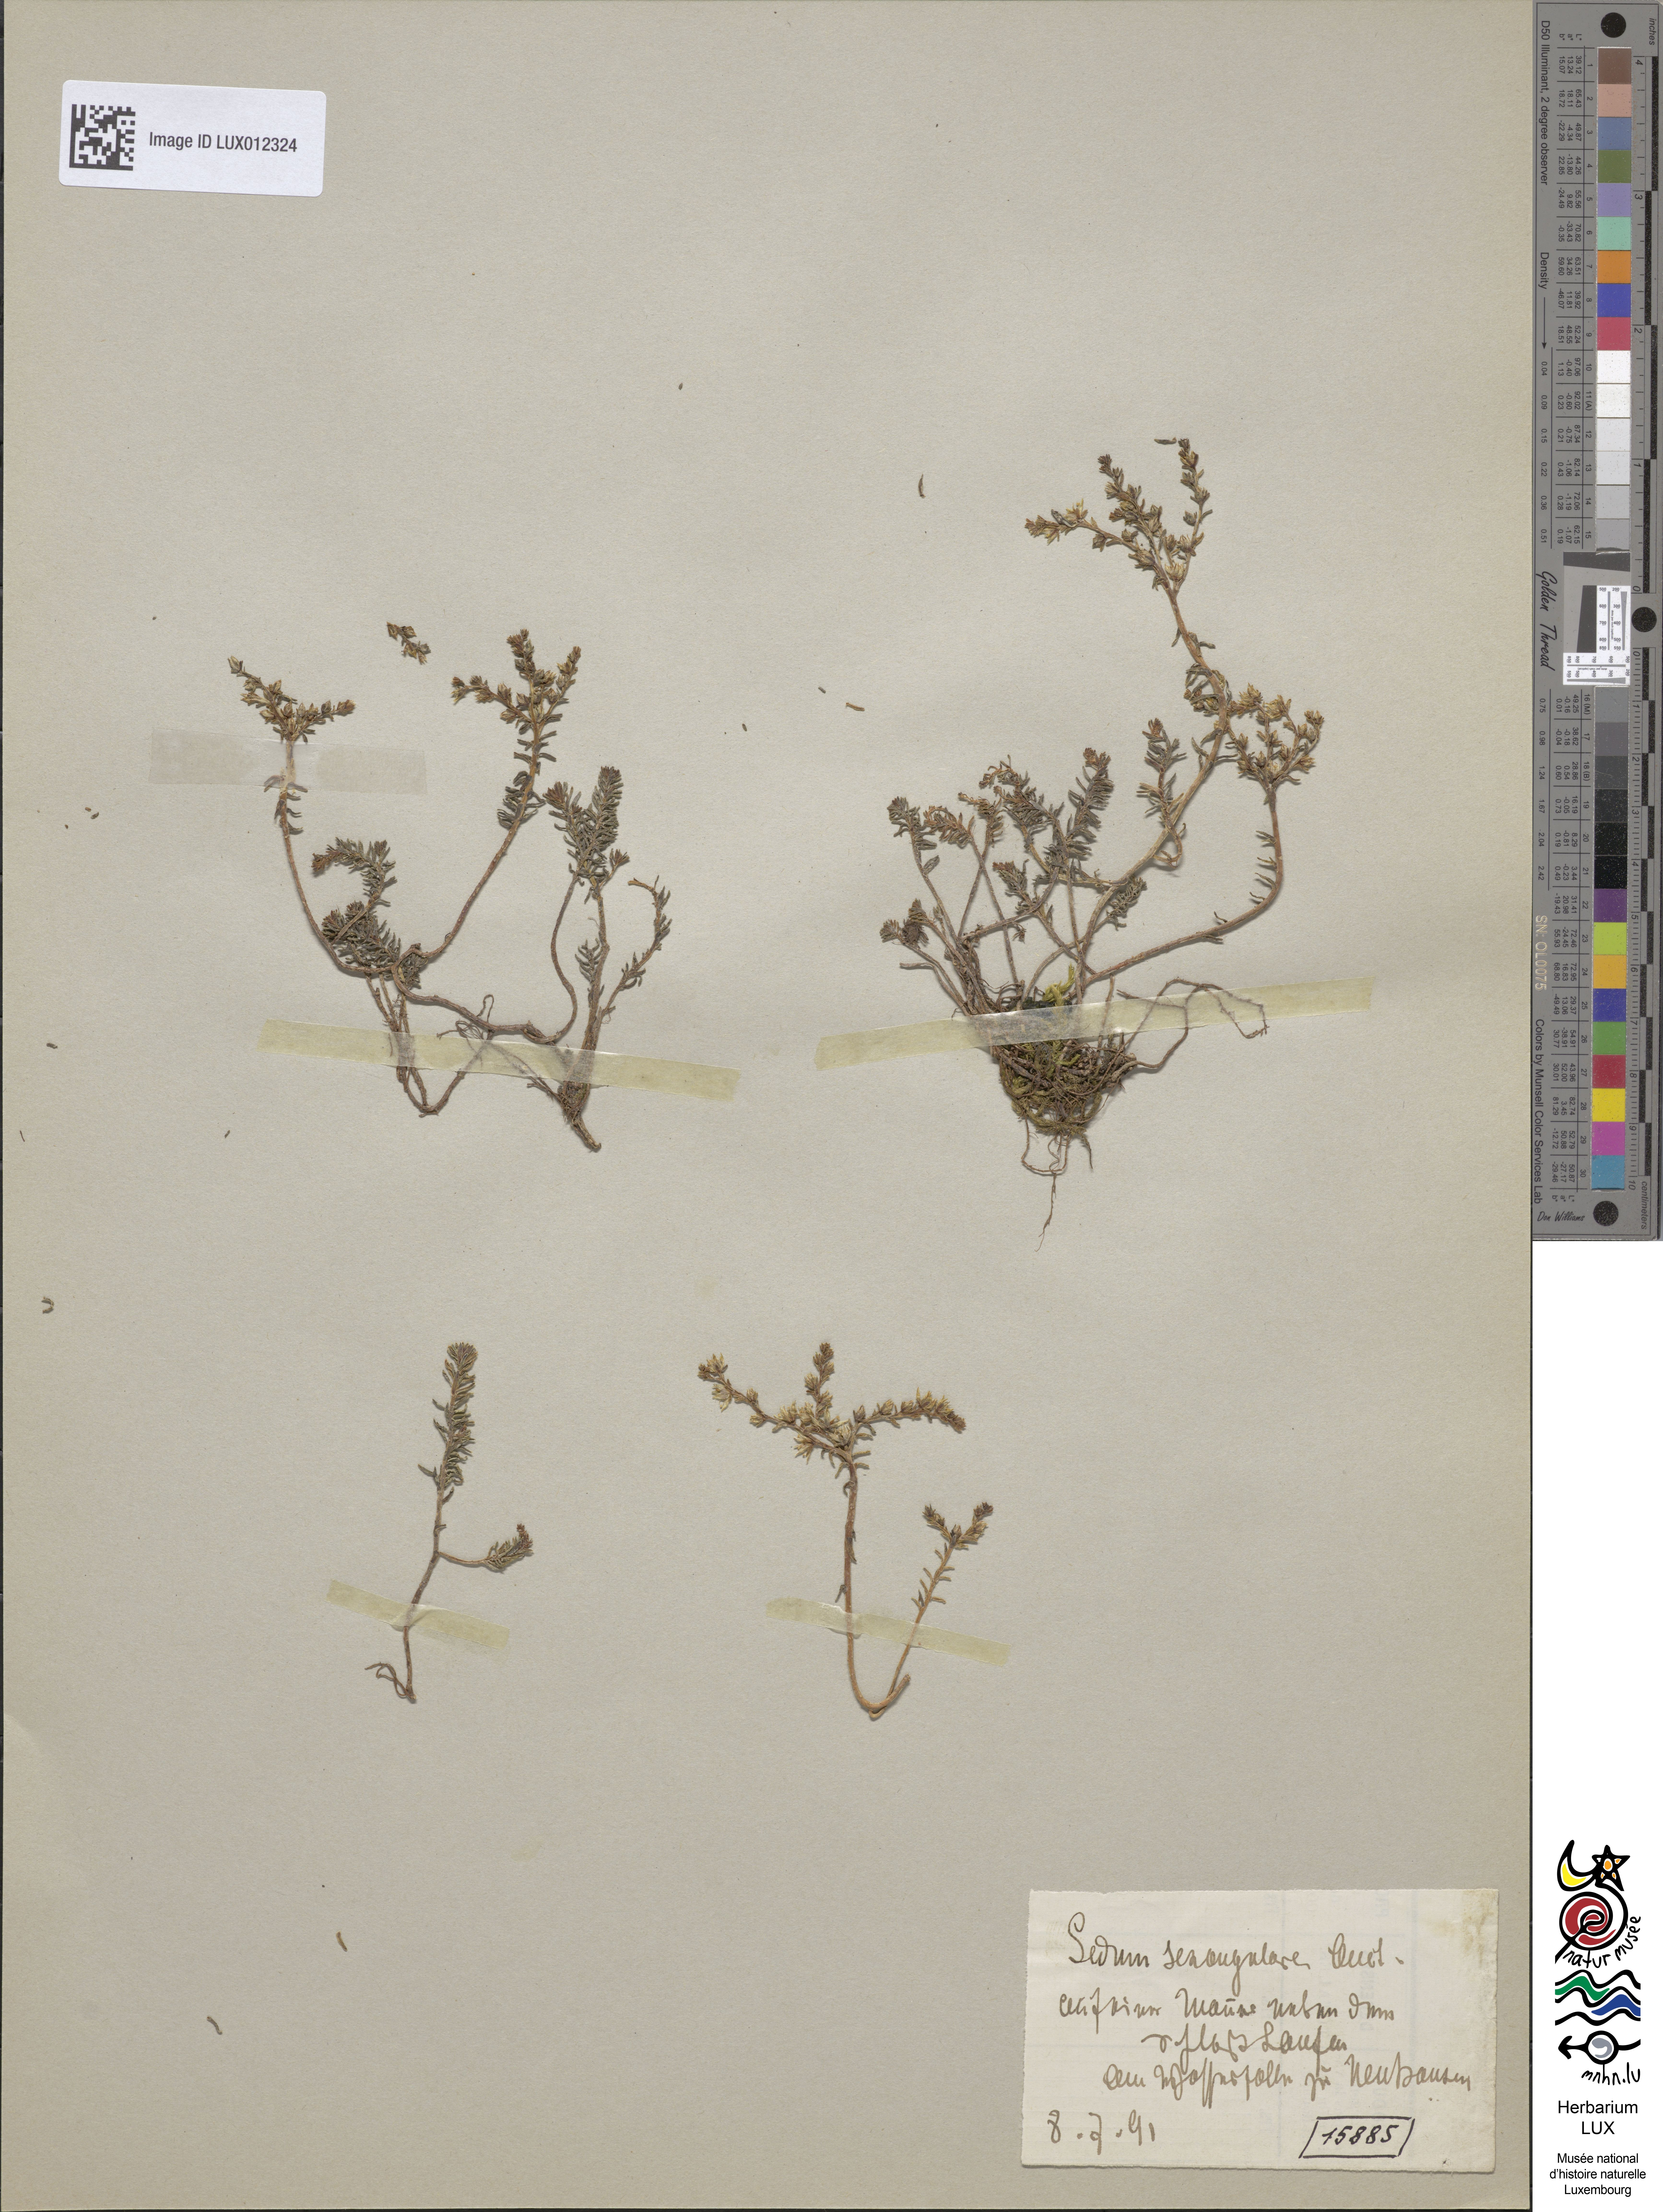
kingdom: Plantae
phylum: Tracheophyta
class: Magnoliopsida
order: Saxifragales
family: Crassulaceae
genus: Sedum
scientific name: Sedum sexangulare
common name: Tasteless stonecrop
